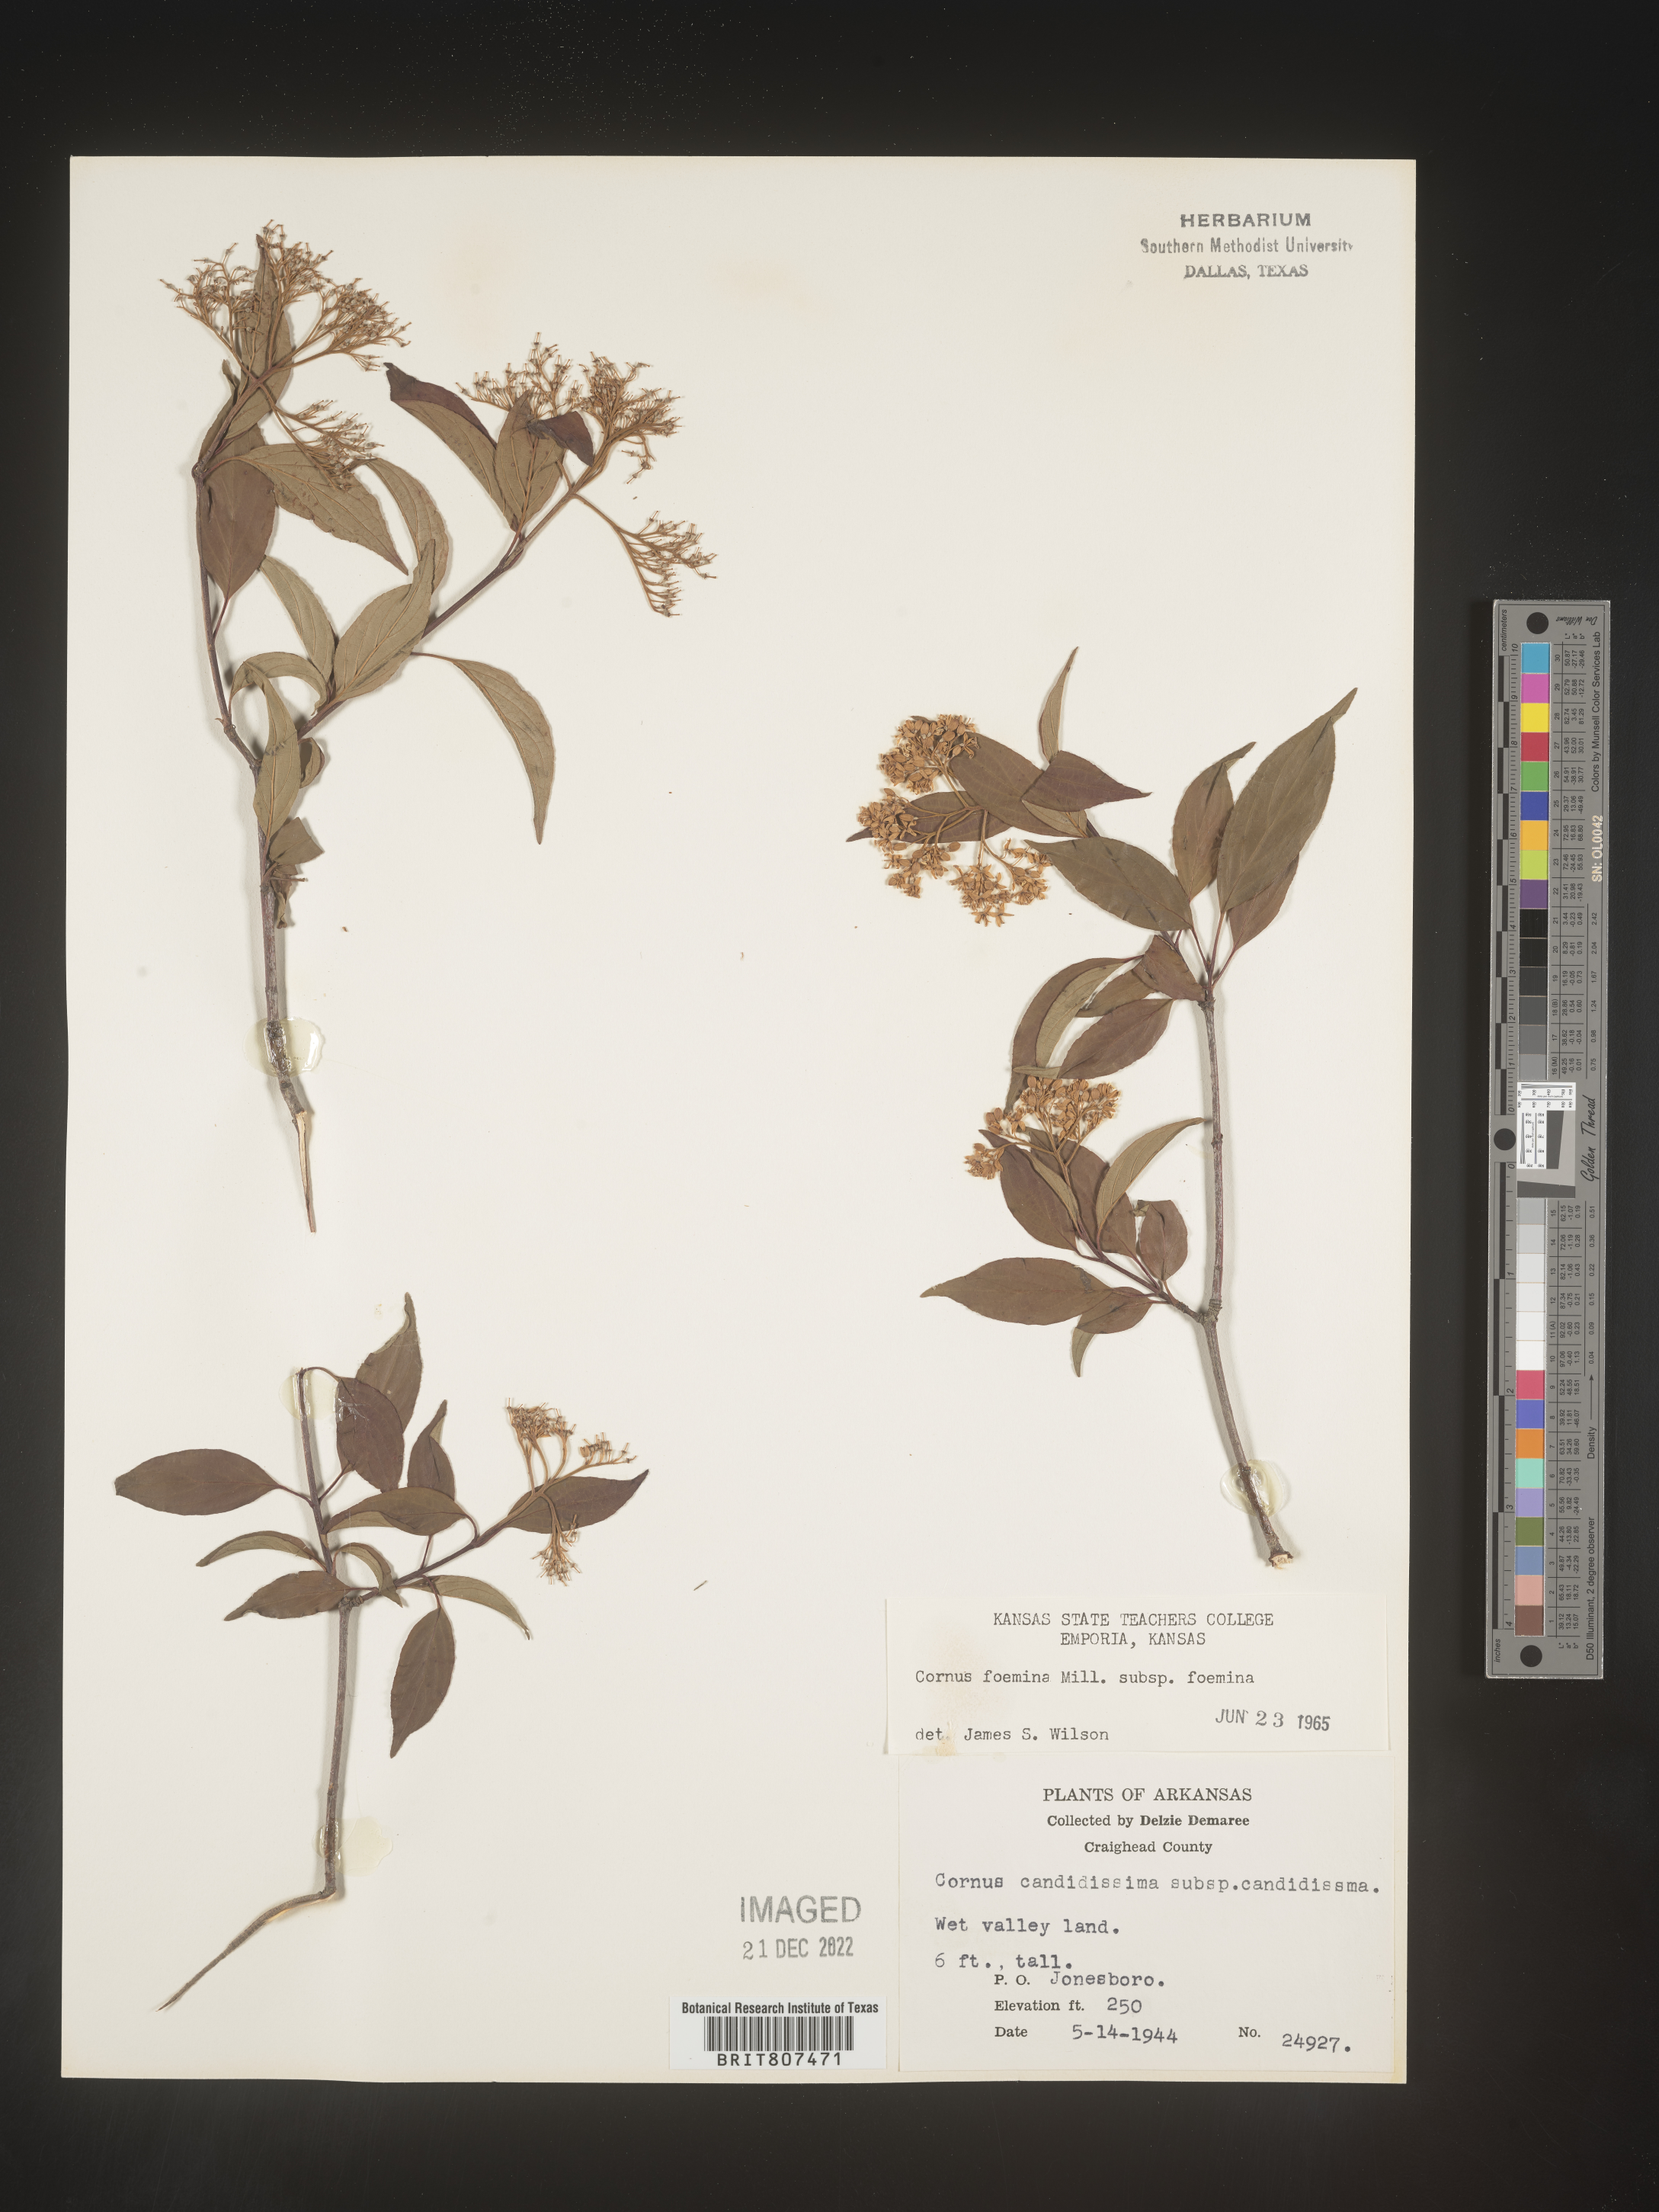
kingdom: Plantae
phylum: Tracheophyta
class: Magnoliopsida
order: Cornales
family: Cornaceae
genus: Cornus
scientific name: Cornus foemina
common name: Swamp dogwood
